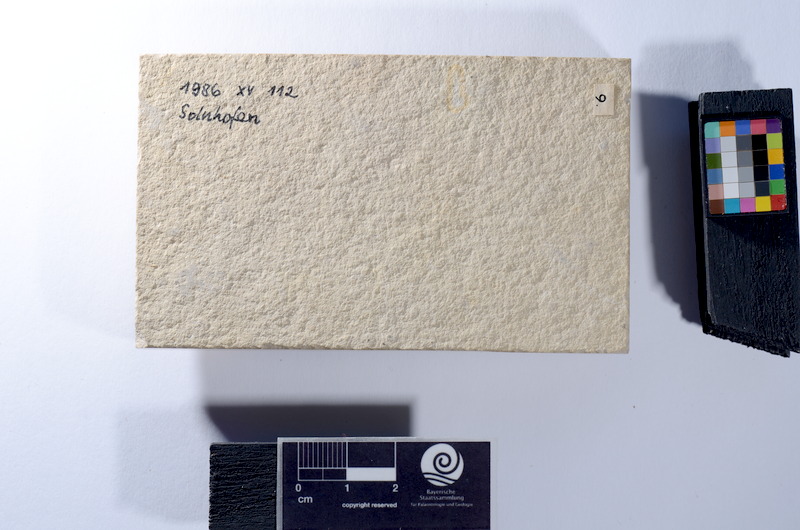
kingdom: Animalia
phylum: Chordata
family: Coccolepididae
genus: Coccolepis
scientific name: Coccolepis bucklandi
